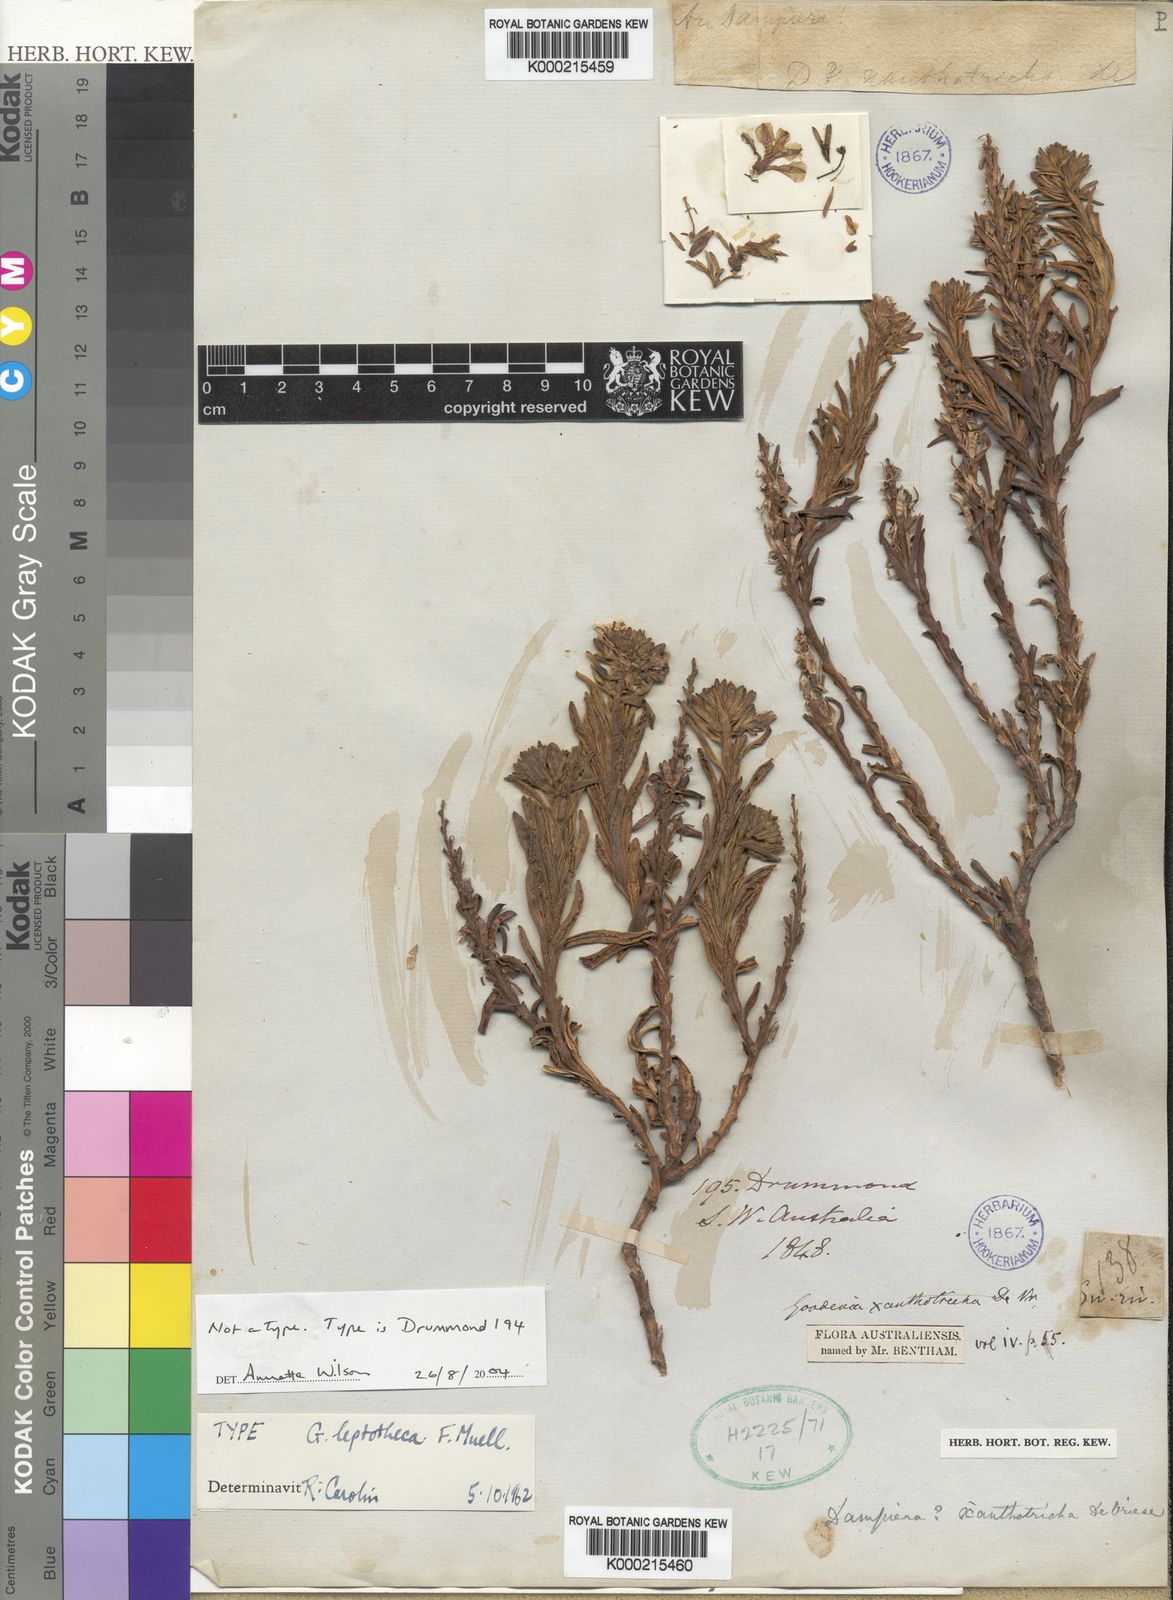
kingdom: Plantae
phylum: Tracheophyta
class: Magnoliopsida
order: Asterales
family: Goodeniaceae
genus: Goodenia
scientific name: Goodenia xanthotricha
